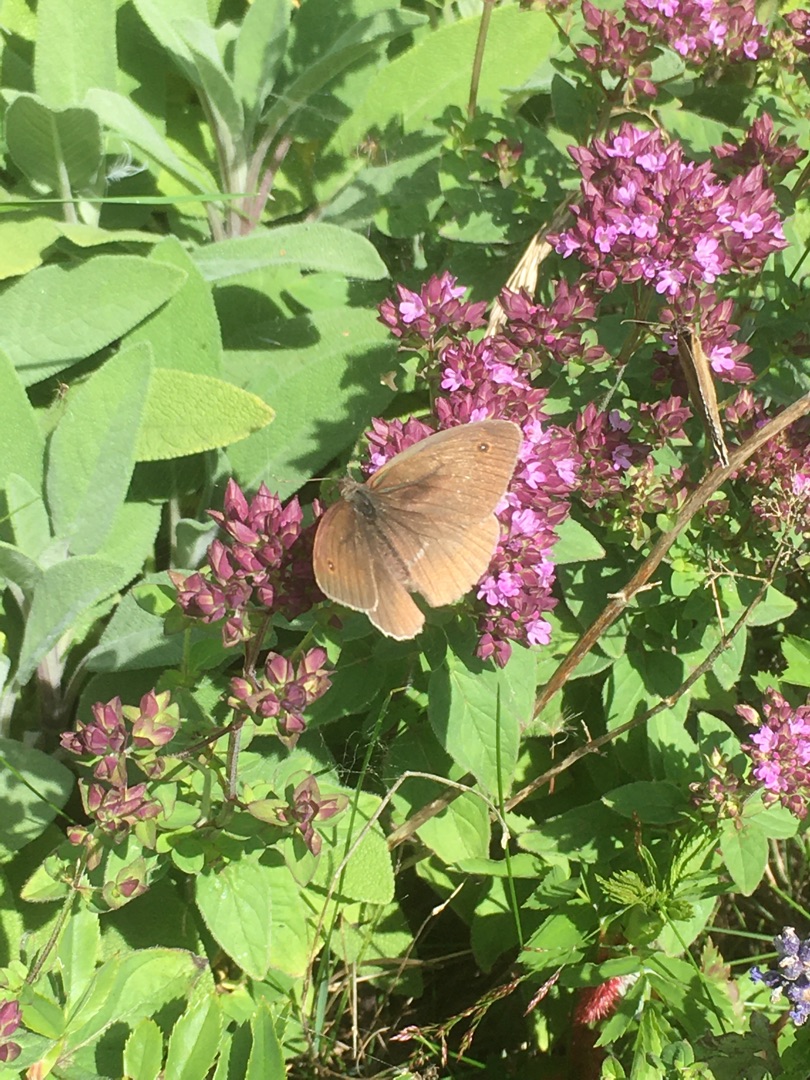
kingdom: Animalia
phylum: Arthropoda
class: Insecta
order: Lepidoptera
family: Nymphalidae
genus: Maniola
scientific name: Maniola jurtina
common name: Græsrandøje
